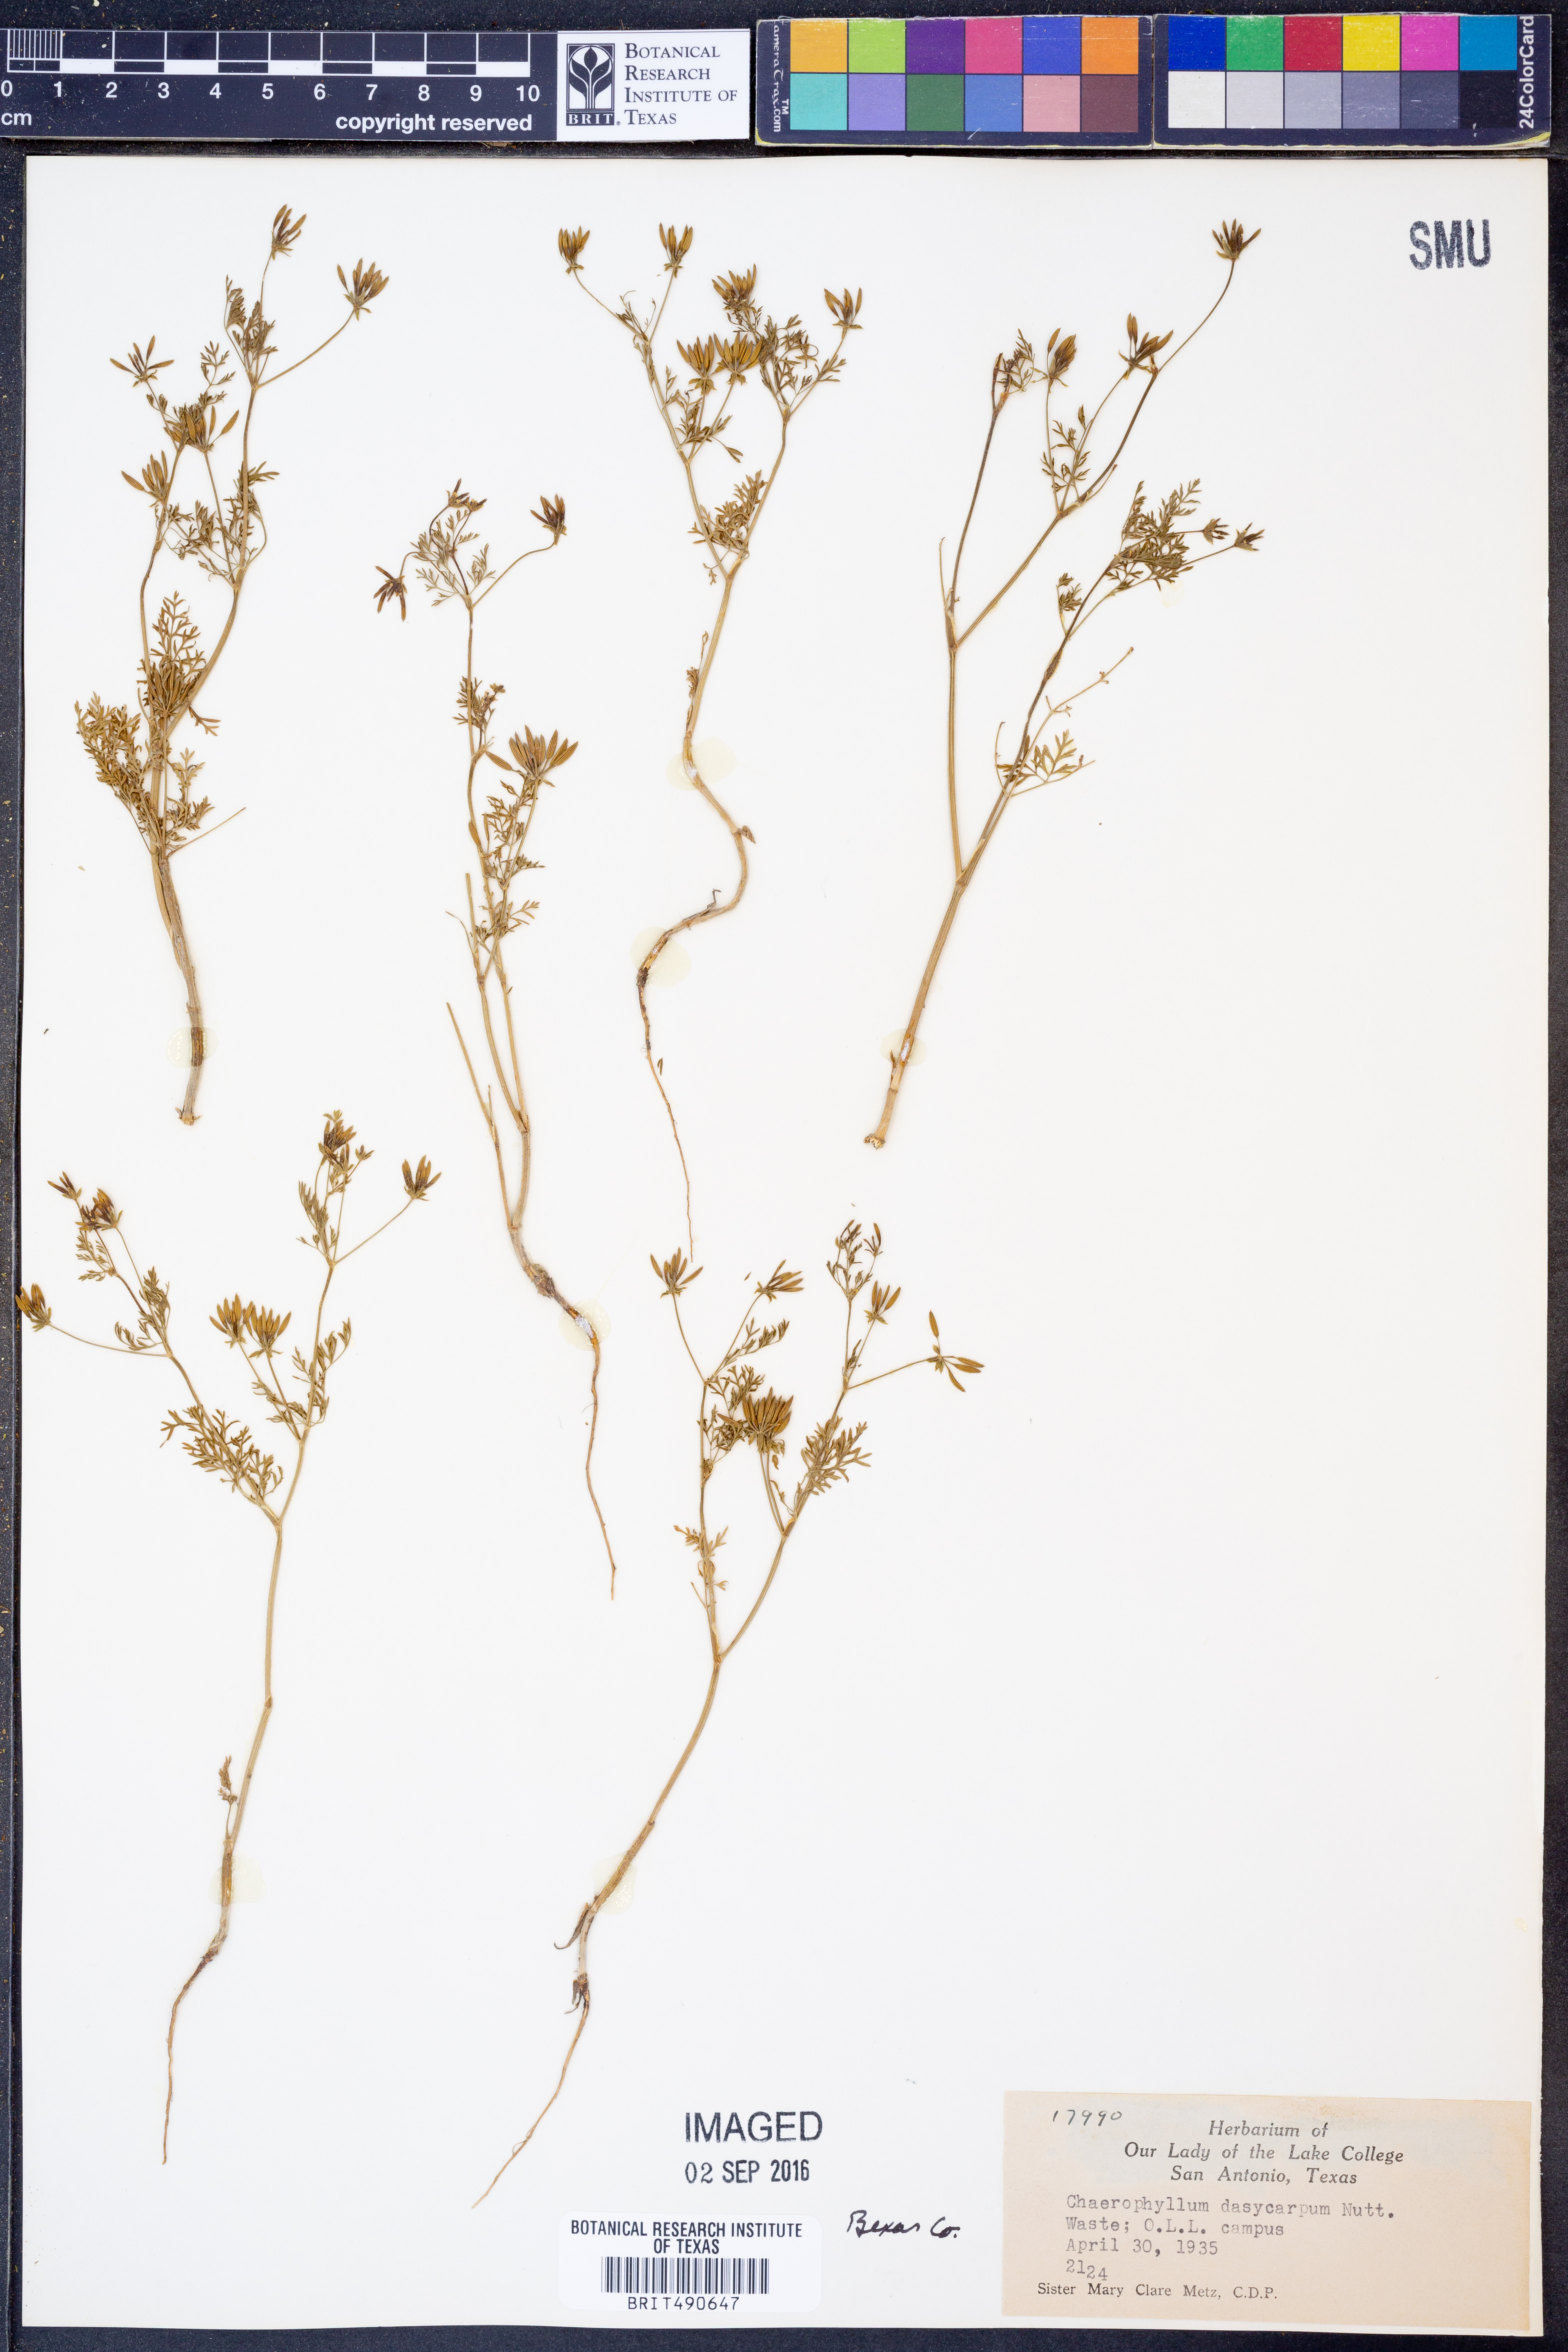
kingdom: Plantae
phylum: Tracheophyta
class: Magnoliopsida
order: Apiales
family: Apiaceae
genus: Chaerophyllum
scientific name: Chaerophyllum dasycarpum
